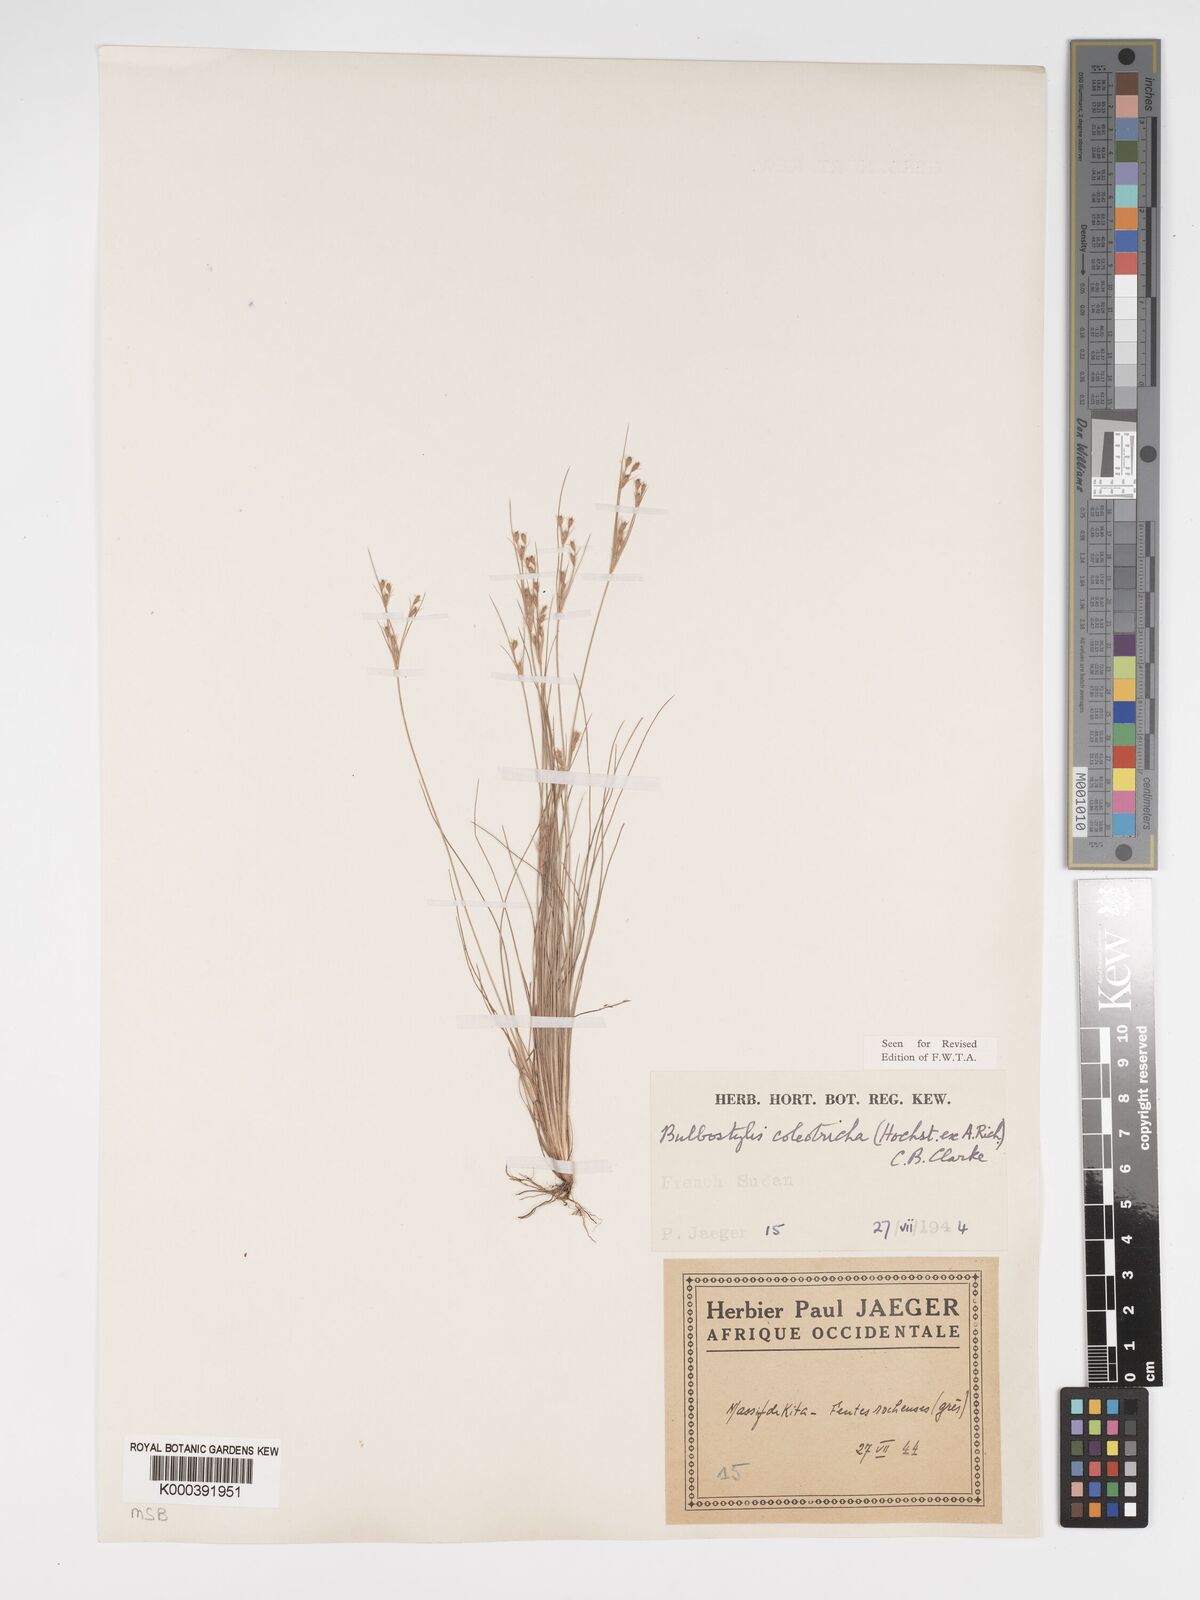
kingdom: Plantae
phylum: Tracheophyta
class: Liliopsida
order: Poales
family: Cyperaceae
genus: Bulbostylis
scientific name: Bulbostylis coleotricha
